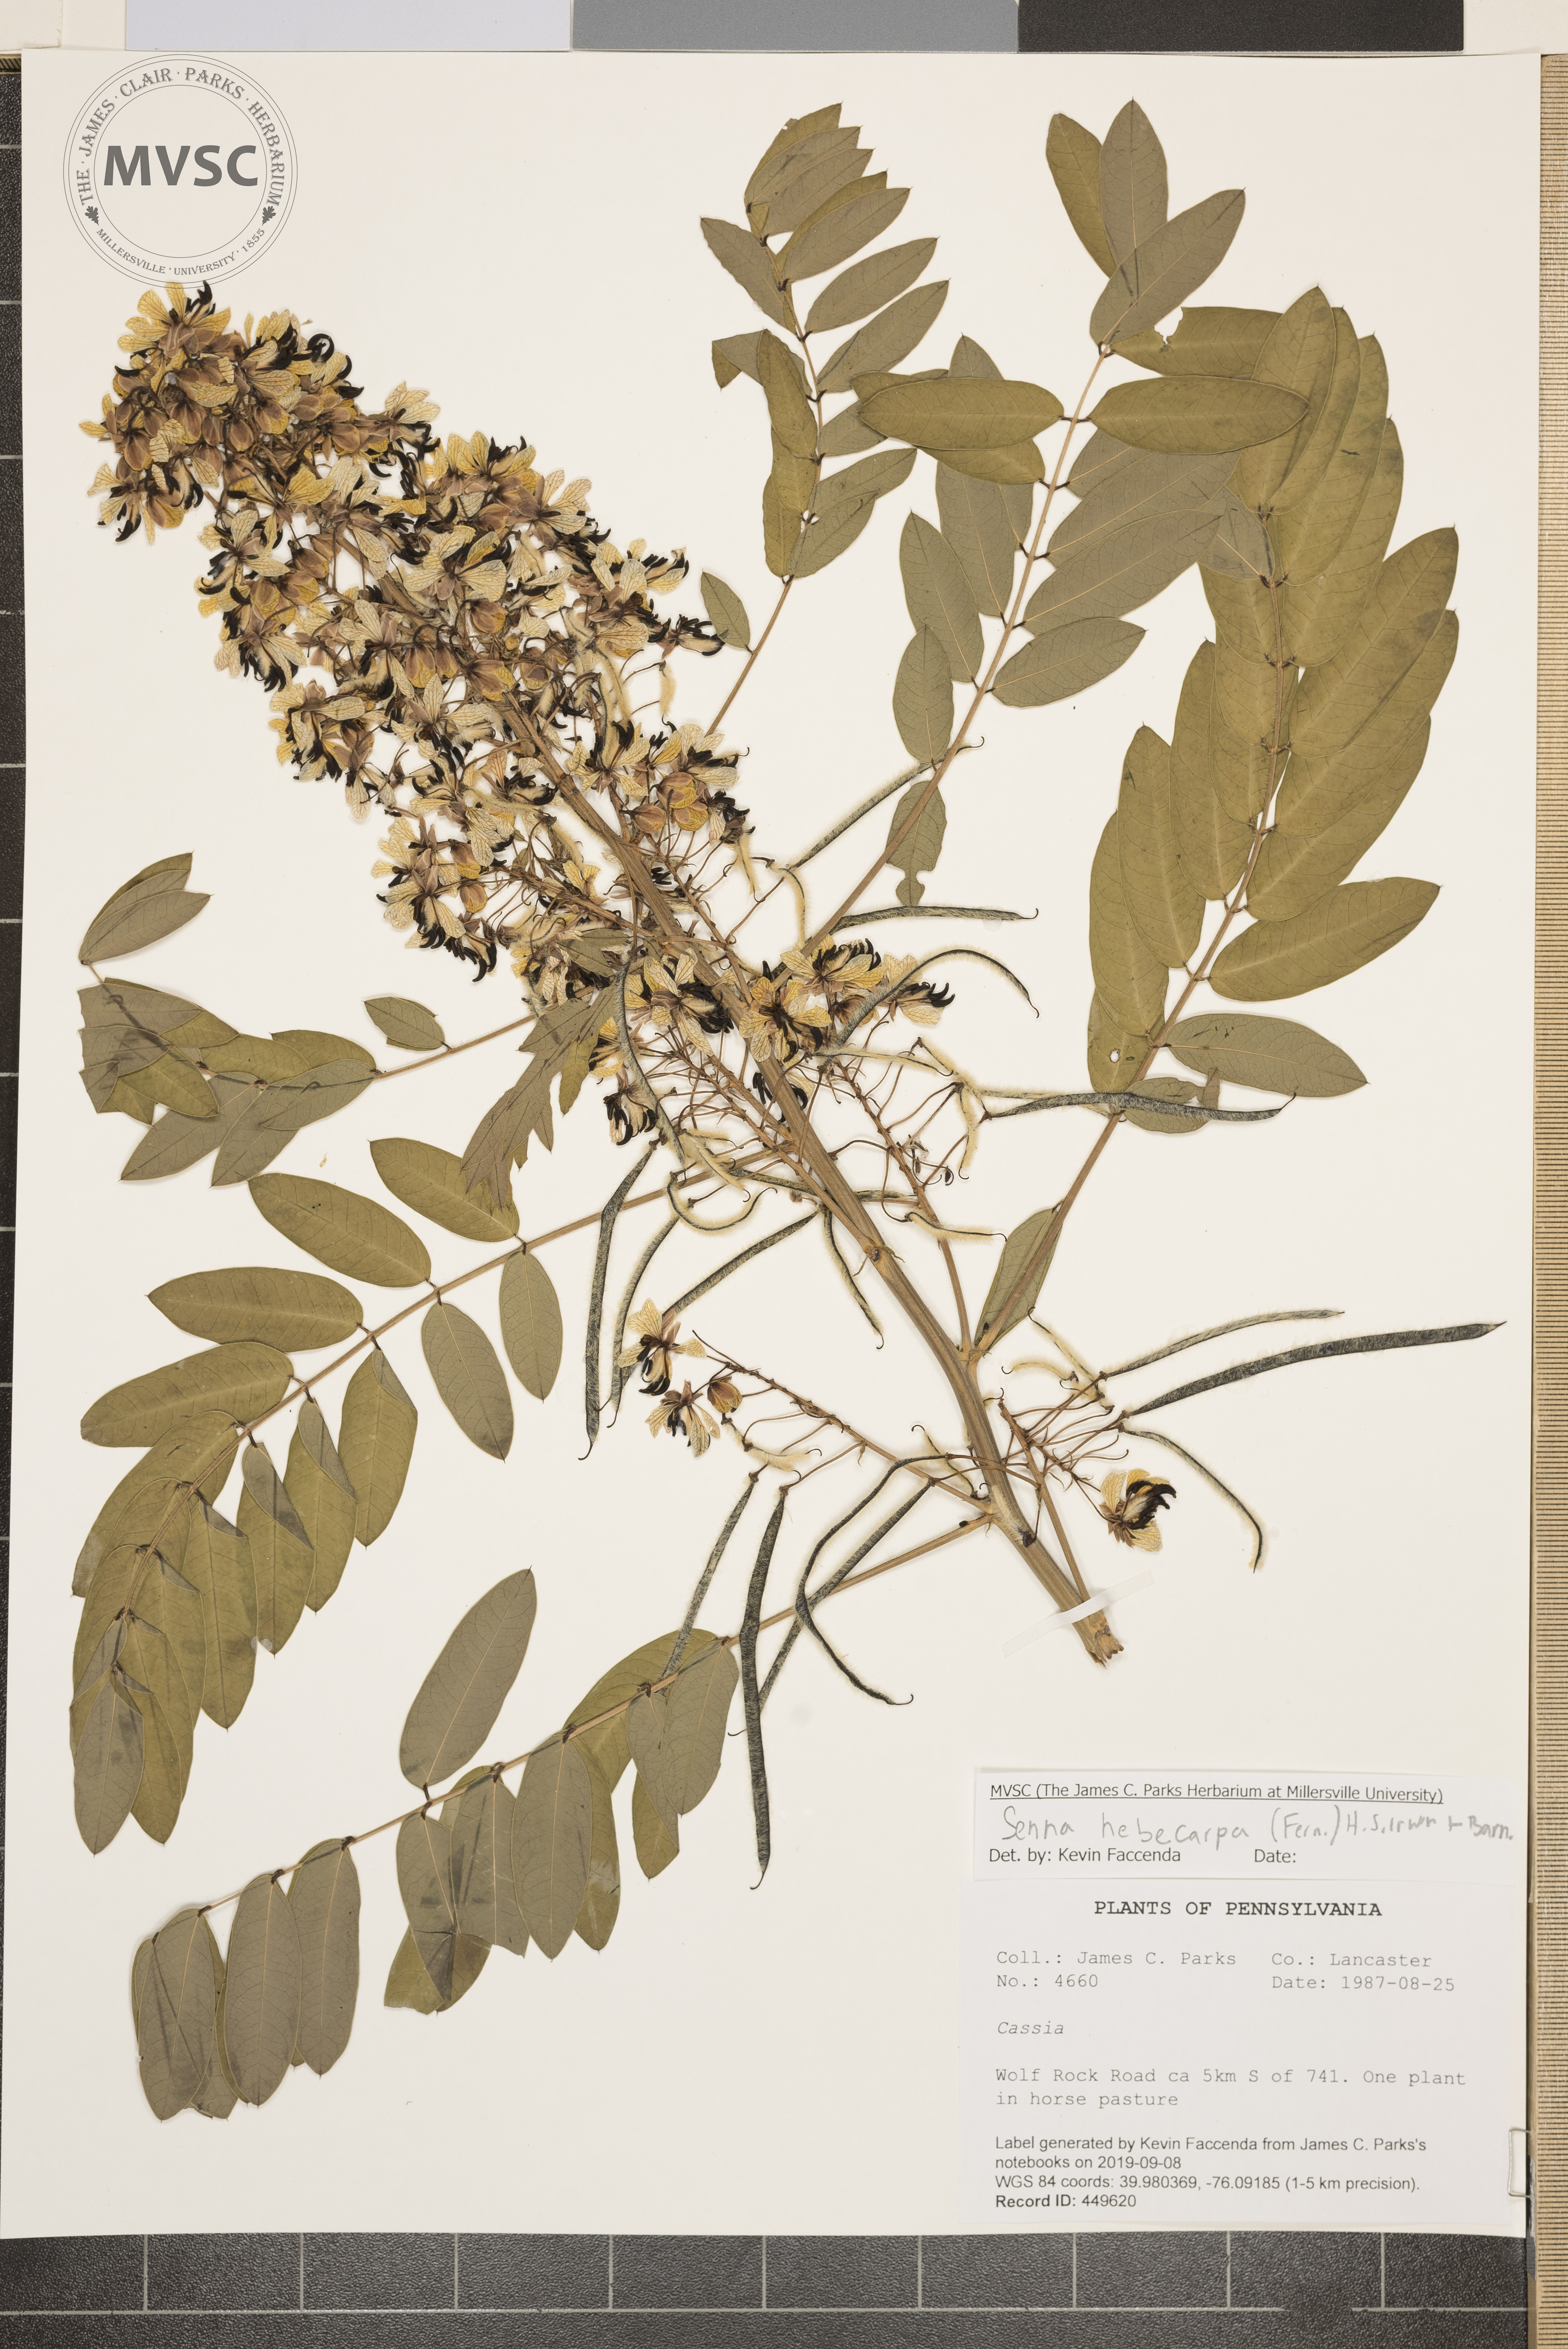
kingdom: Plantae
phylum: Tracheophyta
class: Magnoliopsida
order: Fabales
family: Fabaceae
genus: Senna
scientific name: Senna hebecarpa
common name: Wild senna
